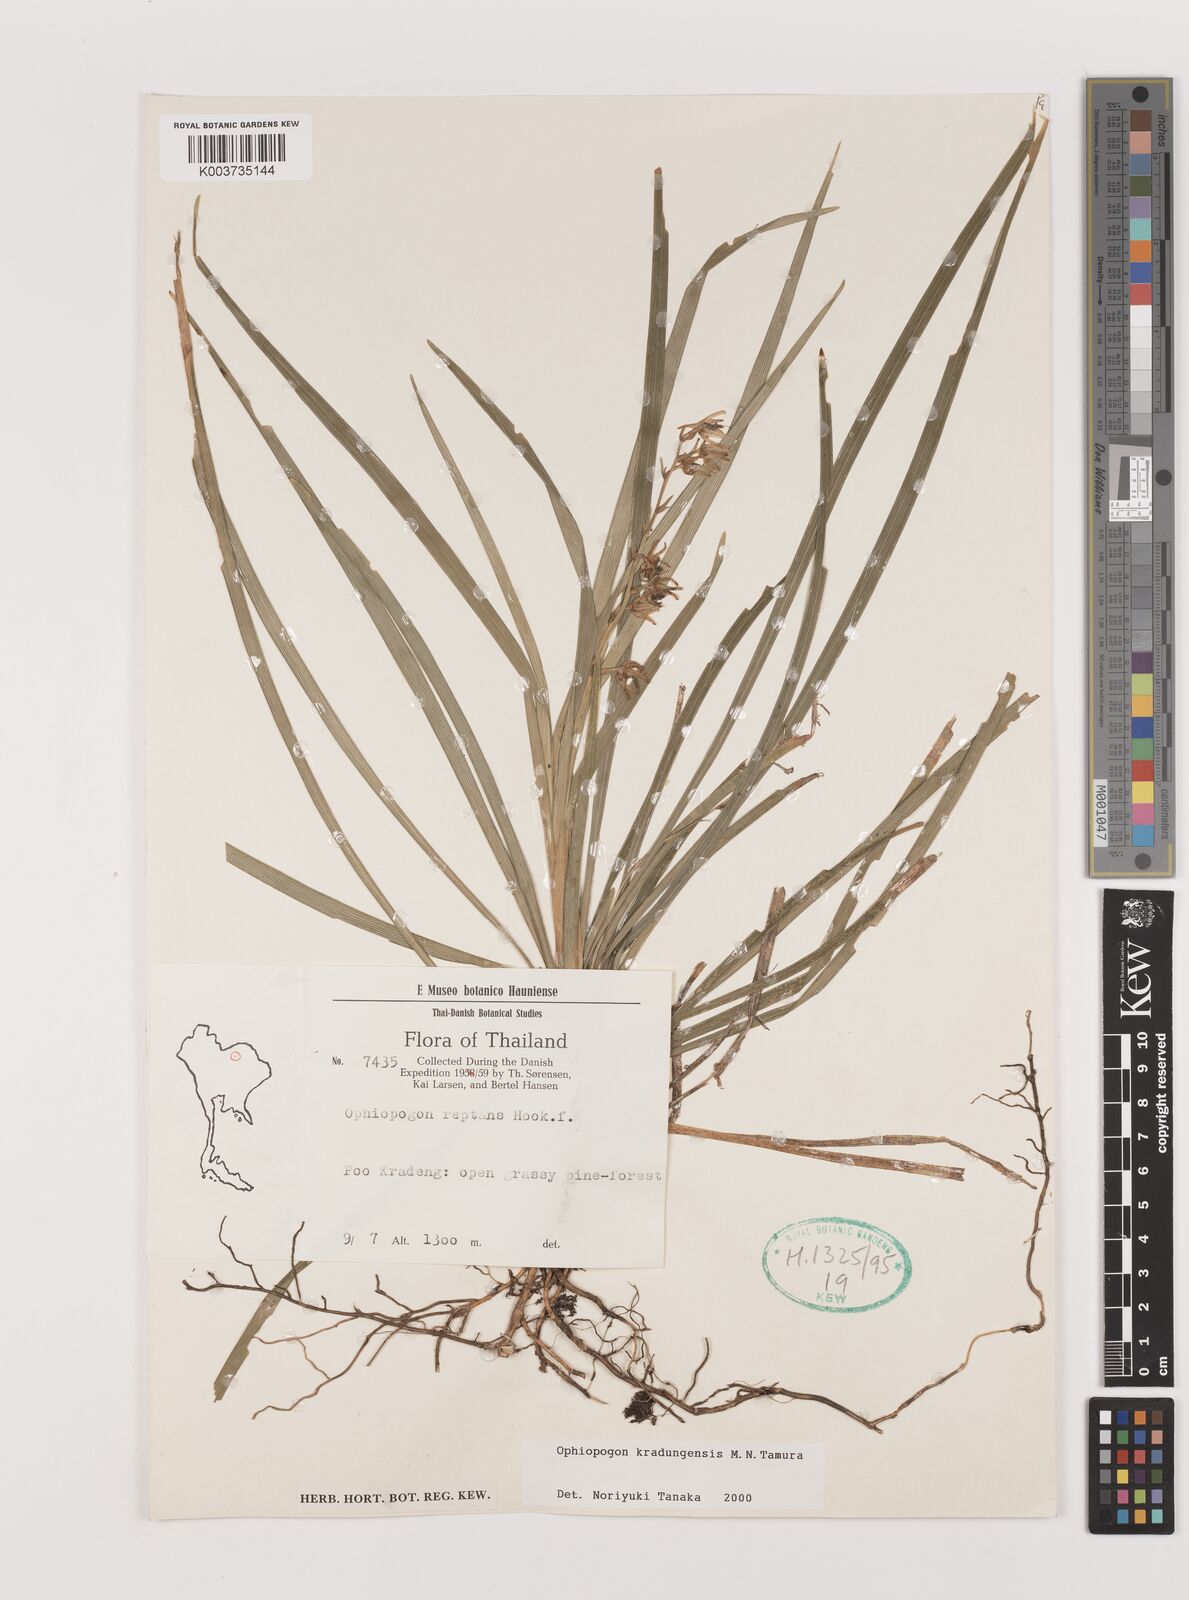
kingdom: Plantae
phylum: Tracheophyta
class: Liliopsida
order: Asparagales
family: Asparagaceae
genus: Ophiopogon
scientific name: Ophiopogon kradungensis
